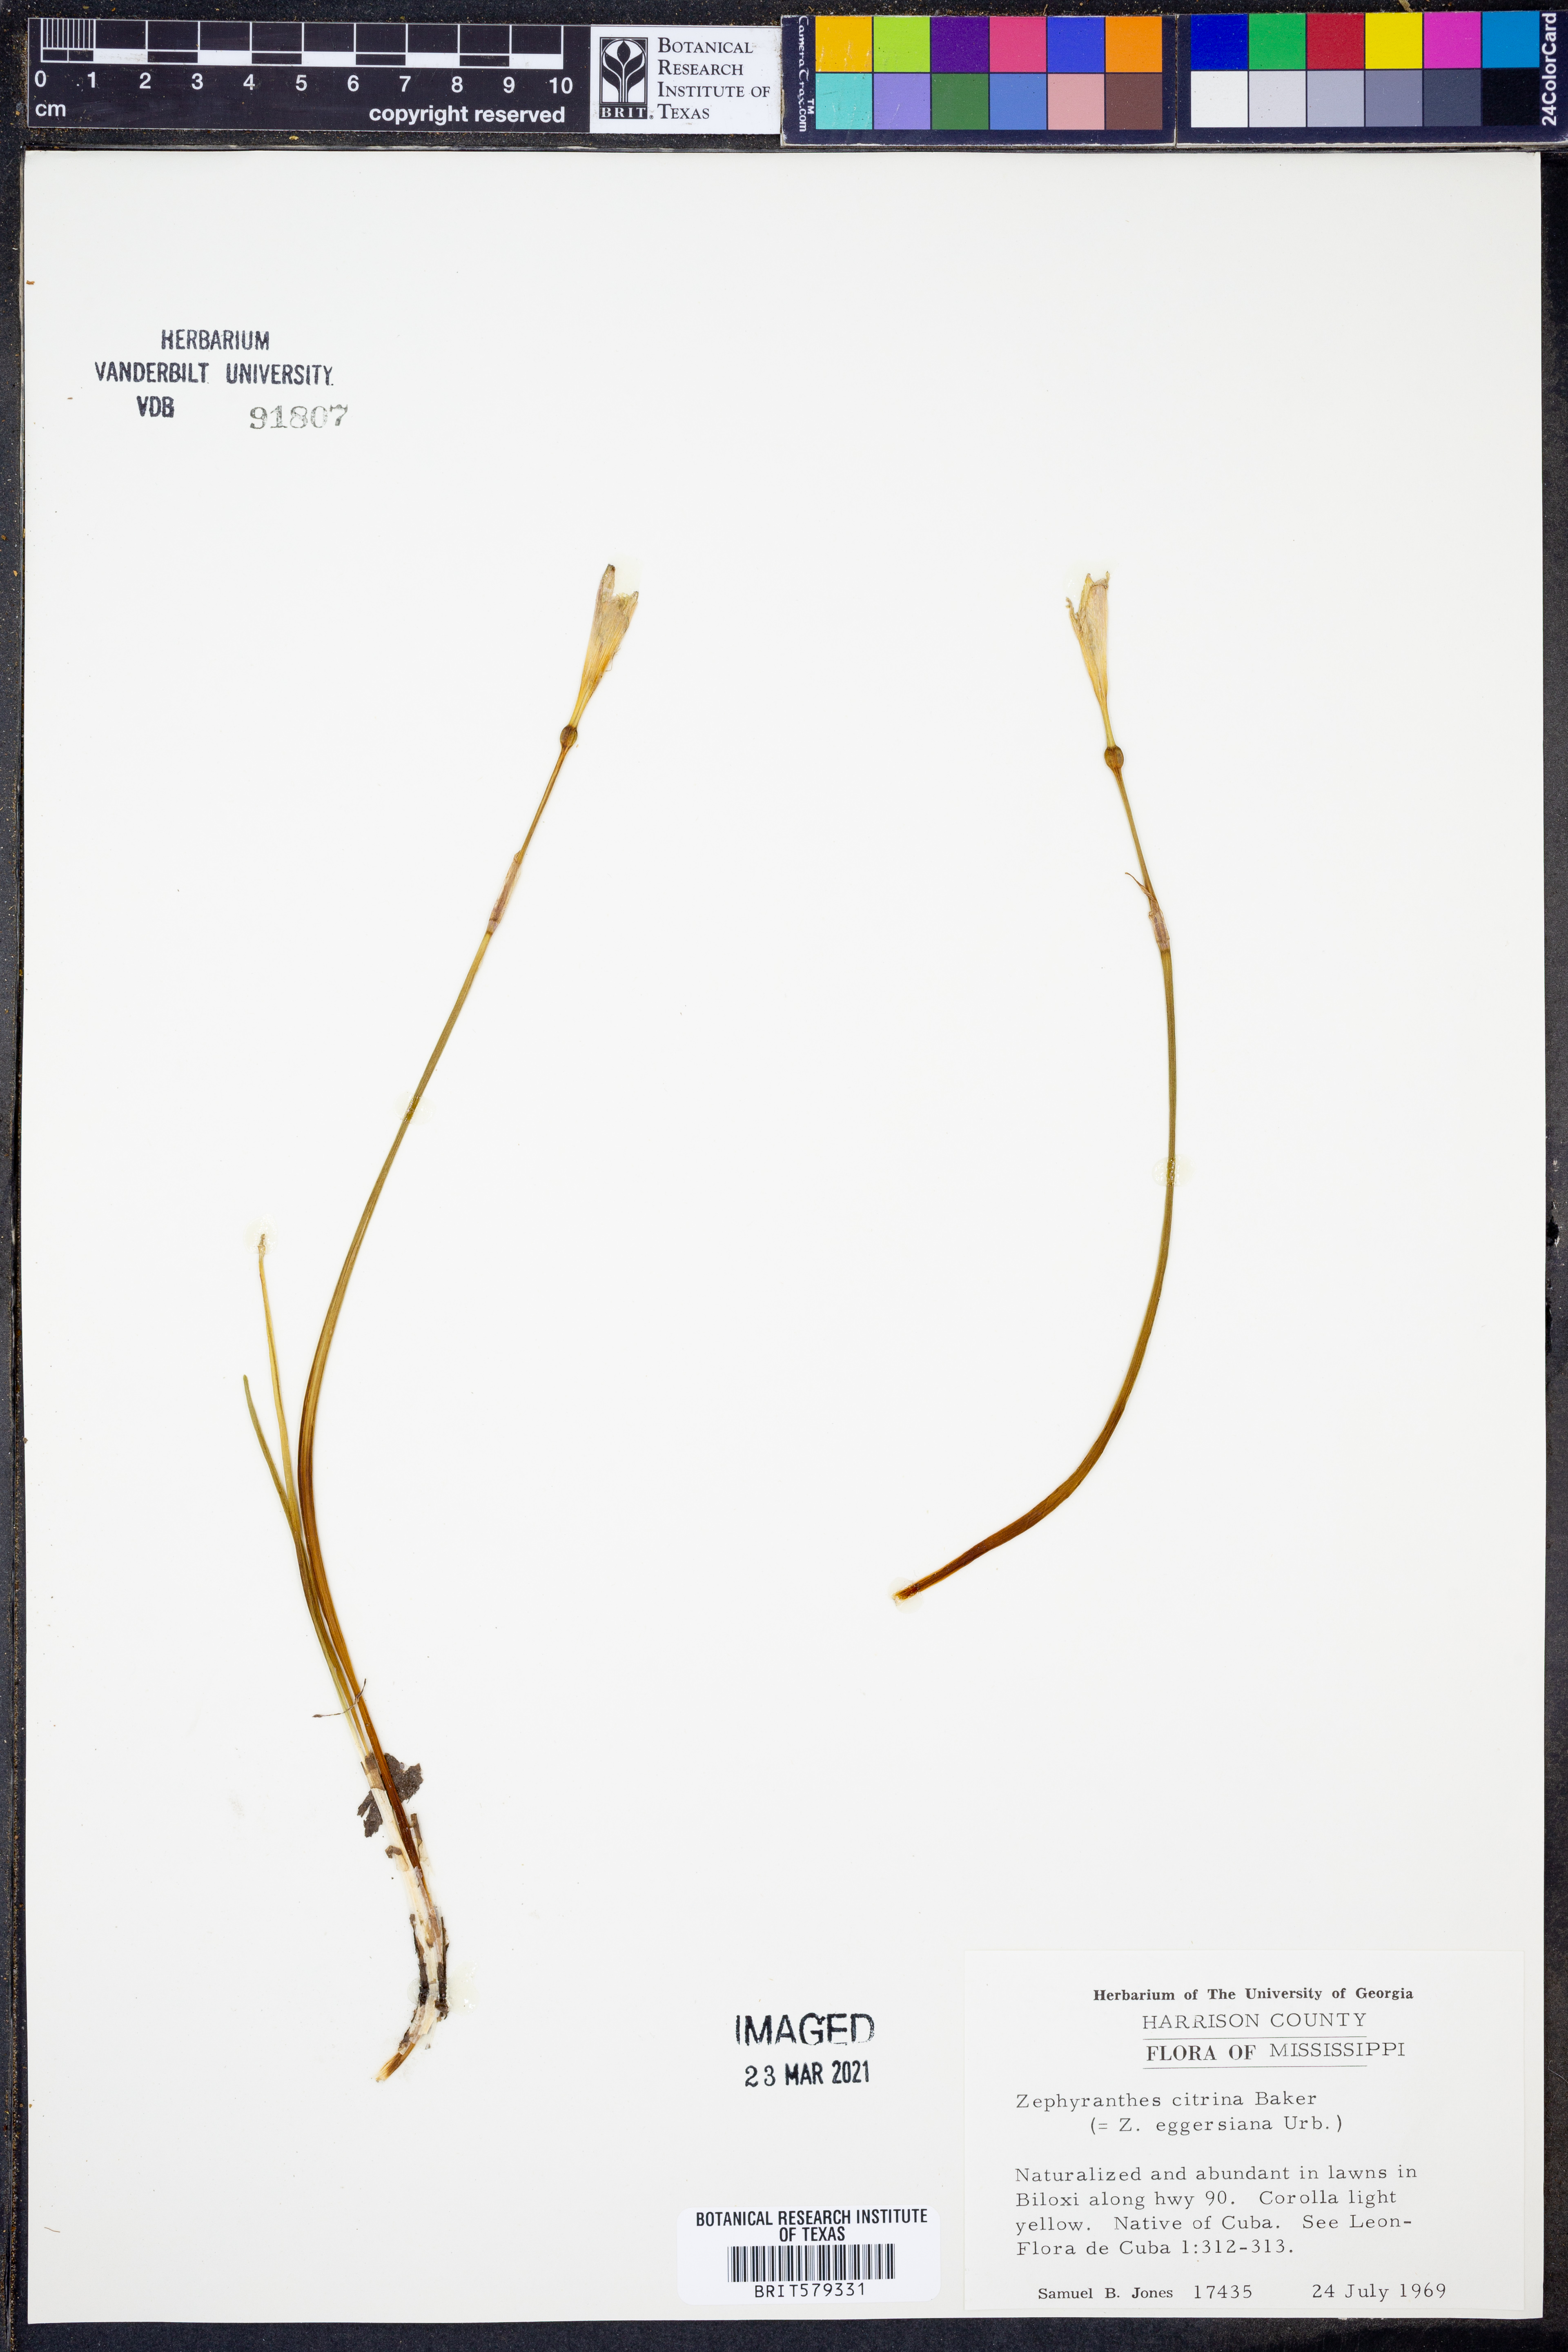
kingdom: Plantae
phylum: Tracheophyta
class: Liliopsida
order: Asparagales
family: Amaryllidaceae
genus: Zephyranthes
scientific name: Zephyranthes citrina
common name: Citron zephyrlily
